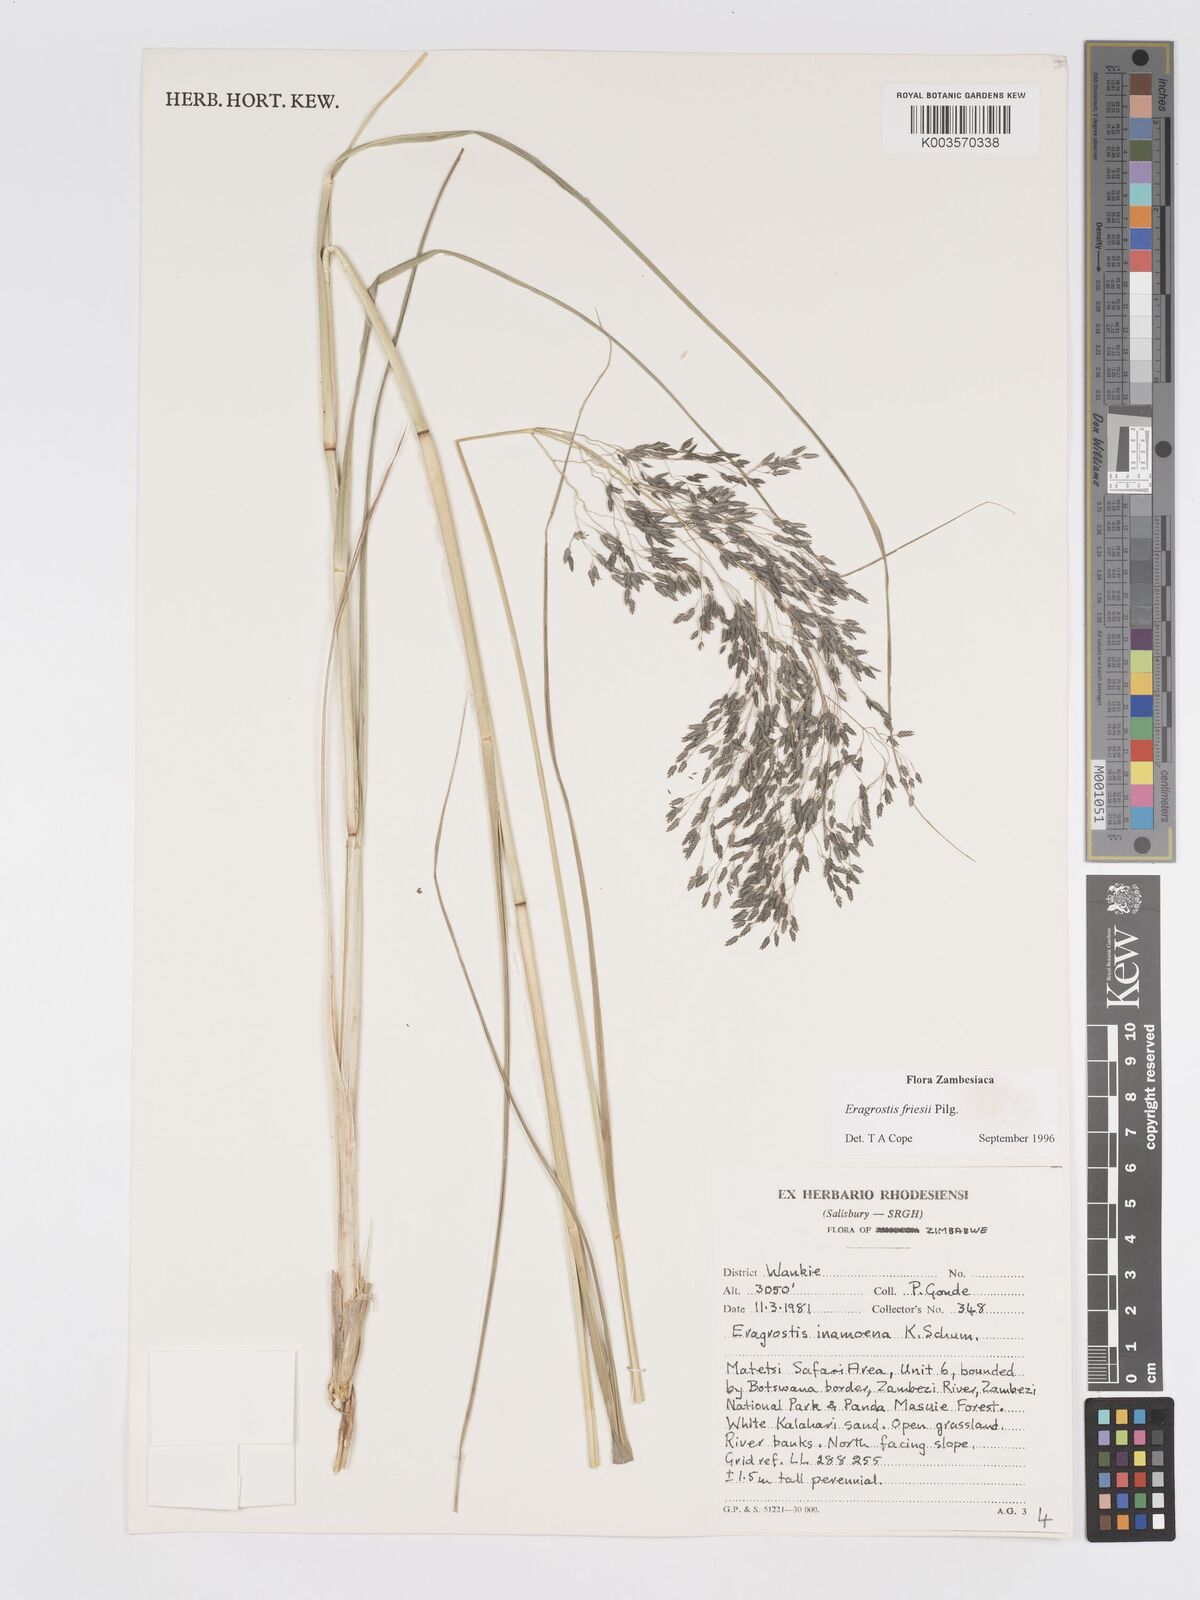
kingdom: Plantae
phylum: Tracheophyta
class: Liliopsida
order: Poales
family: Poaceae
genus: Eragrostis
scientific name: Eragrostis friesii
